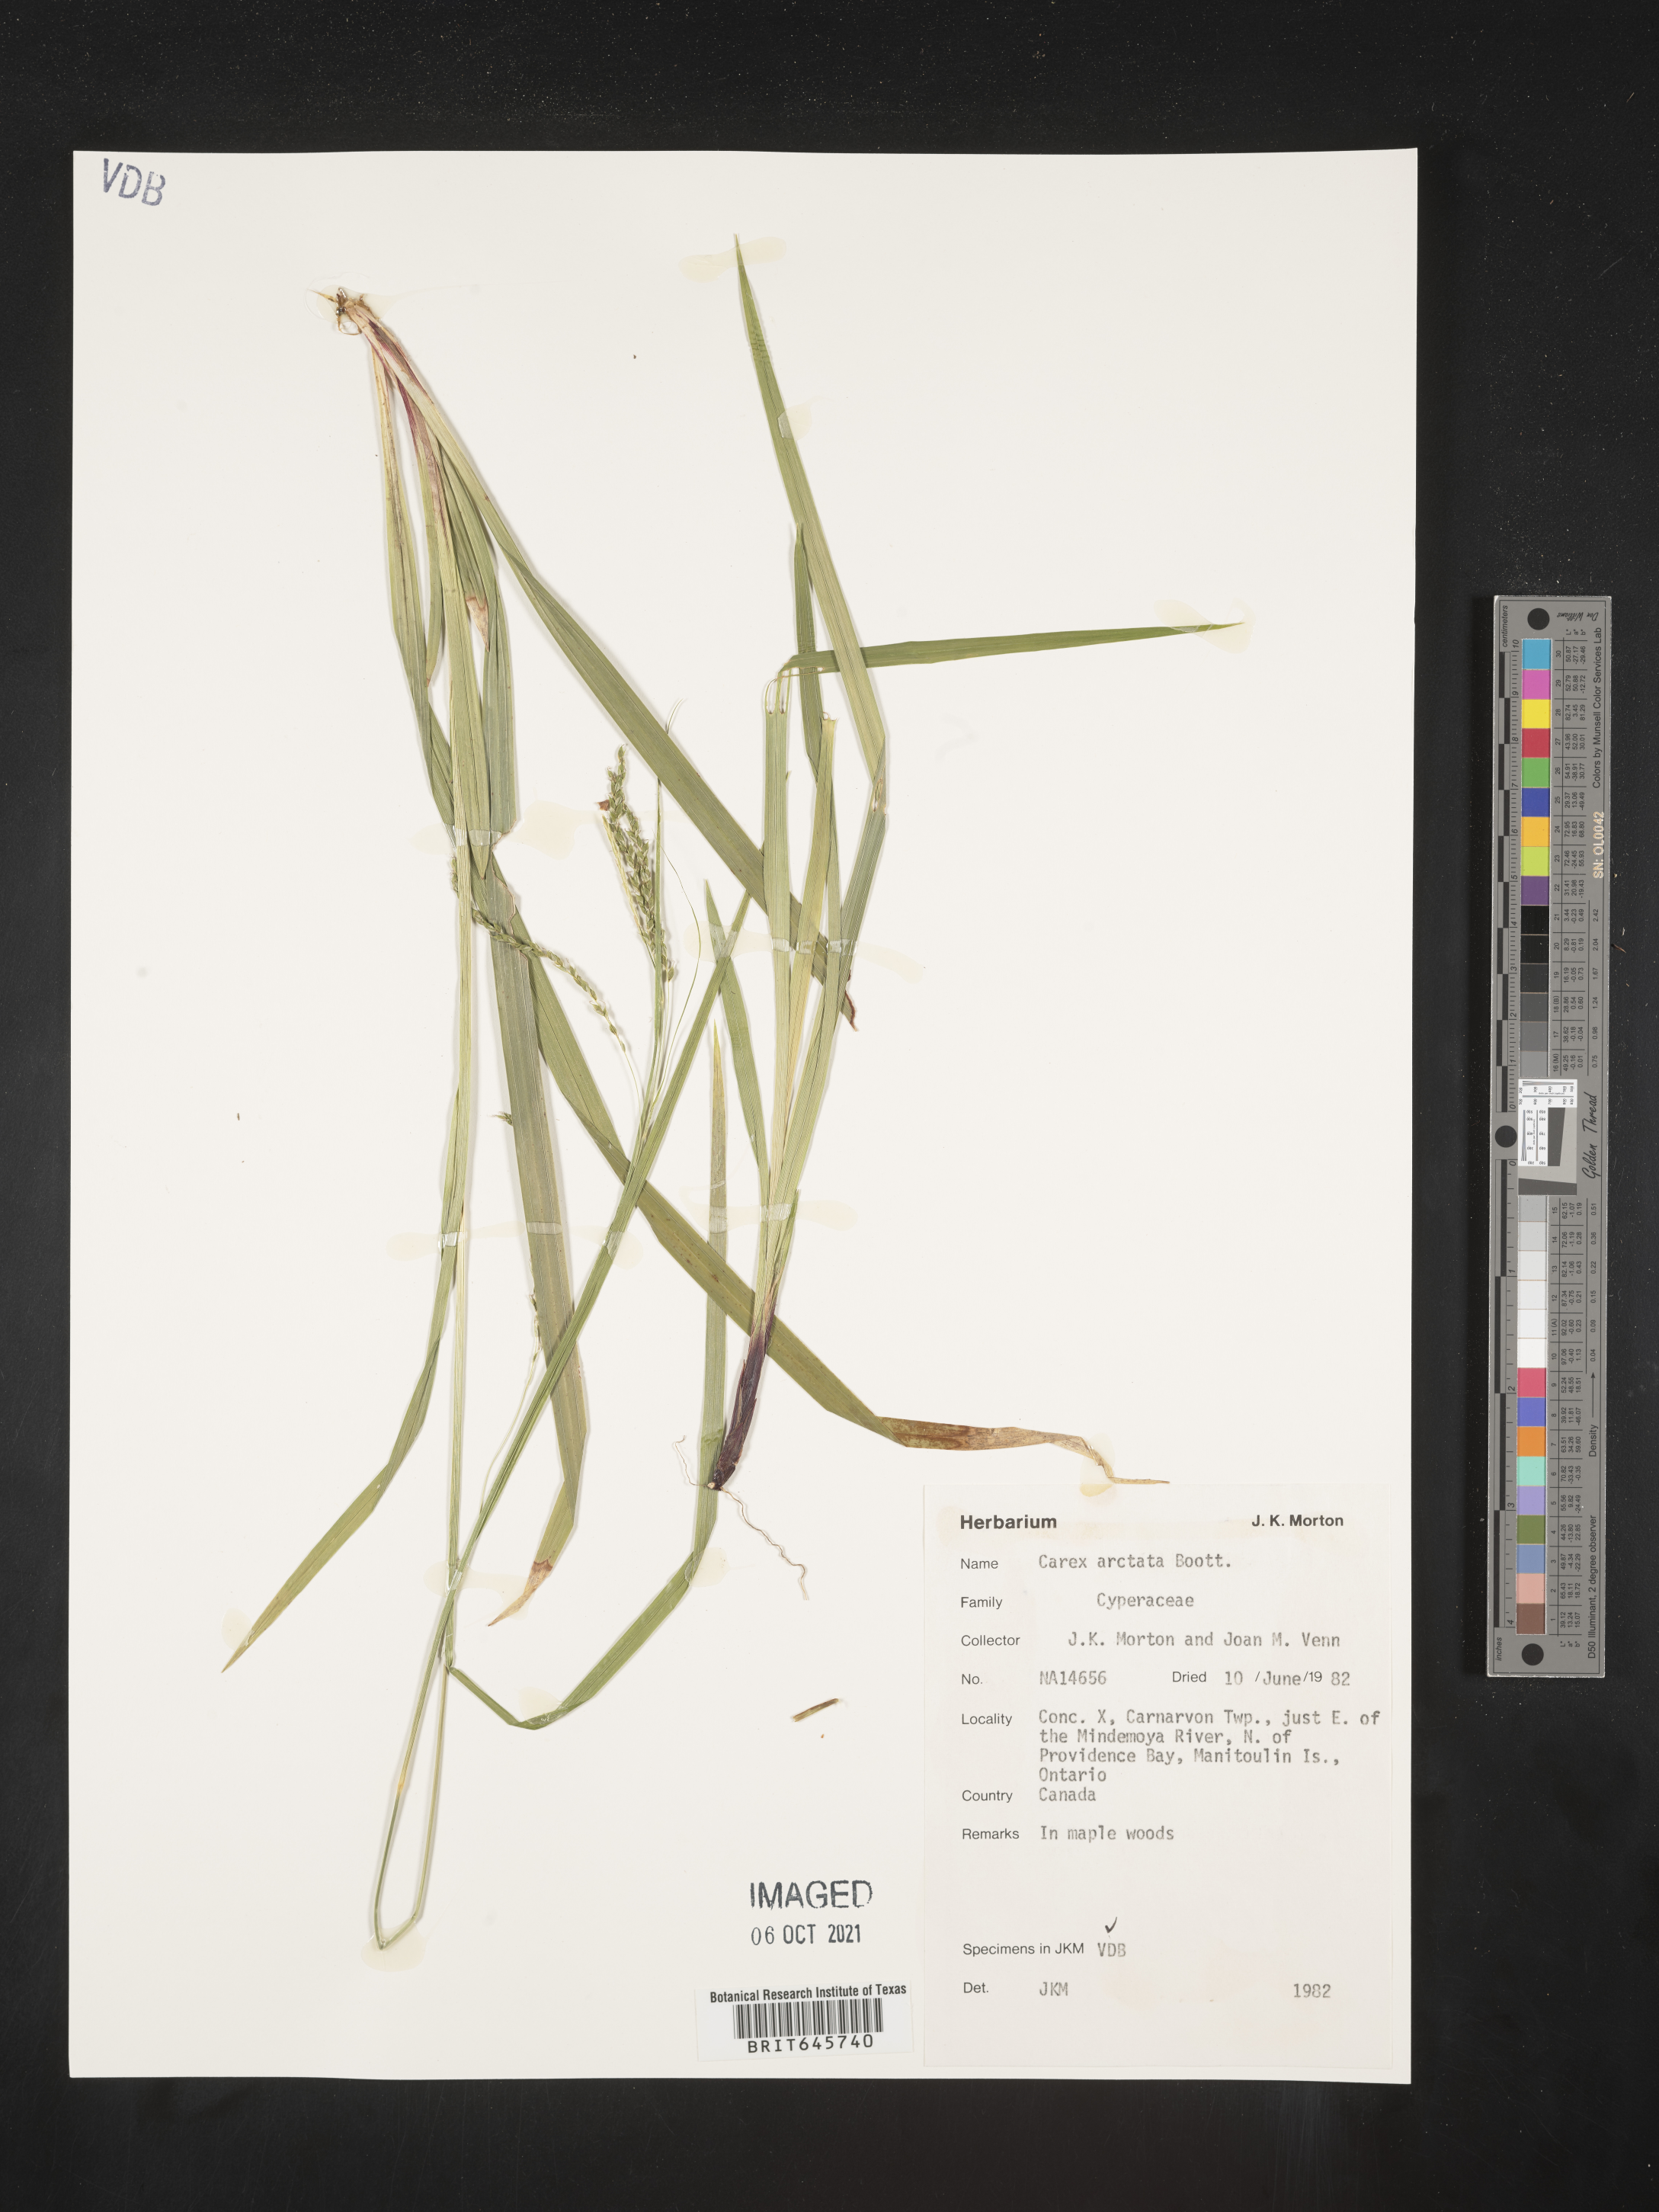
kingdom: Plantae
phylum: Tracheophyta
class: Liliopsida
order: Poales
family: Cyperaceae
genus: Carex
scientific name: Carex arctata
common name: Black sedge
